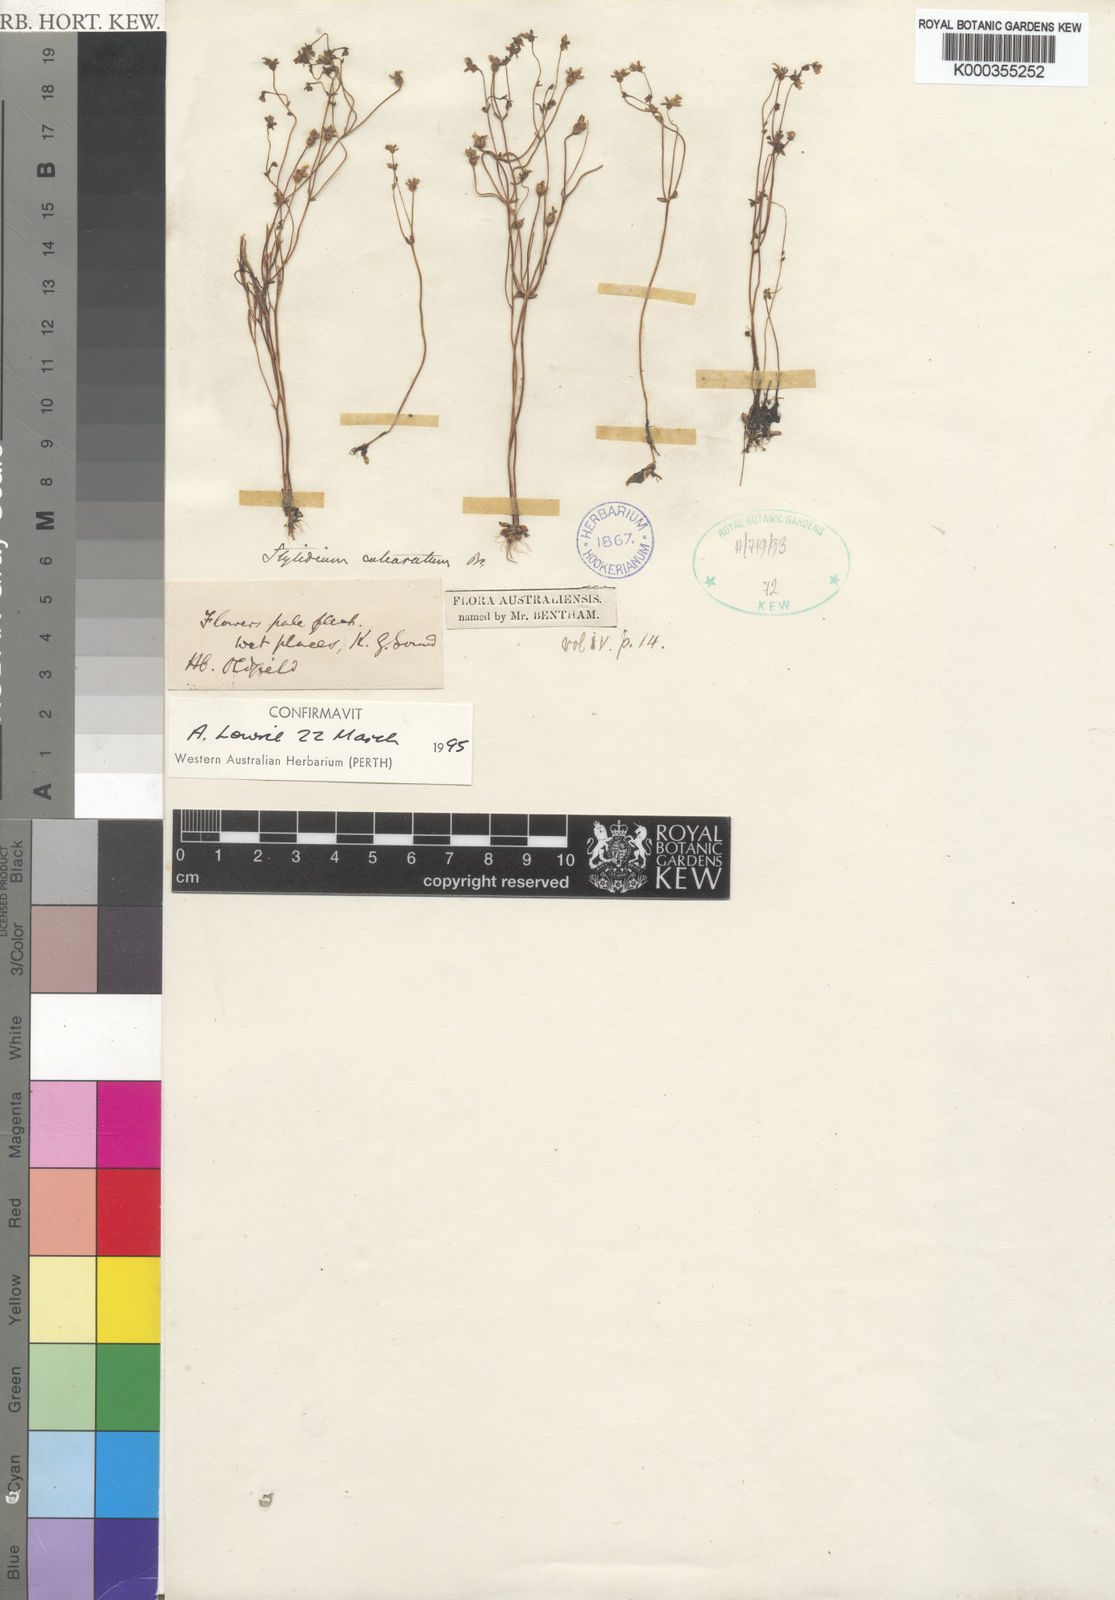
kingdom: Plantae
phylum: Tracheophyta
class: Magnoliopsida
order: Asterales
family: Stylidiaceae
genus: Stylidium
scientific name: Stylidium calcaratum
